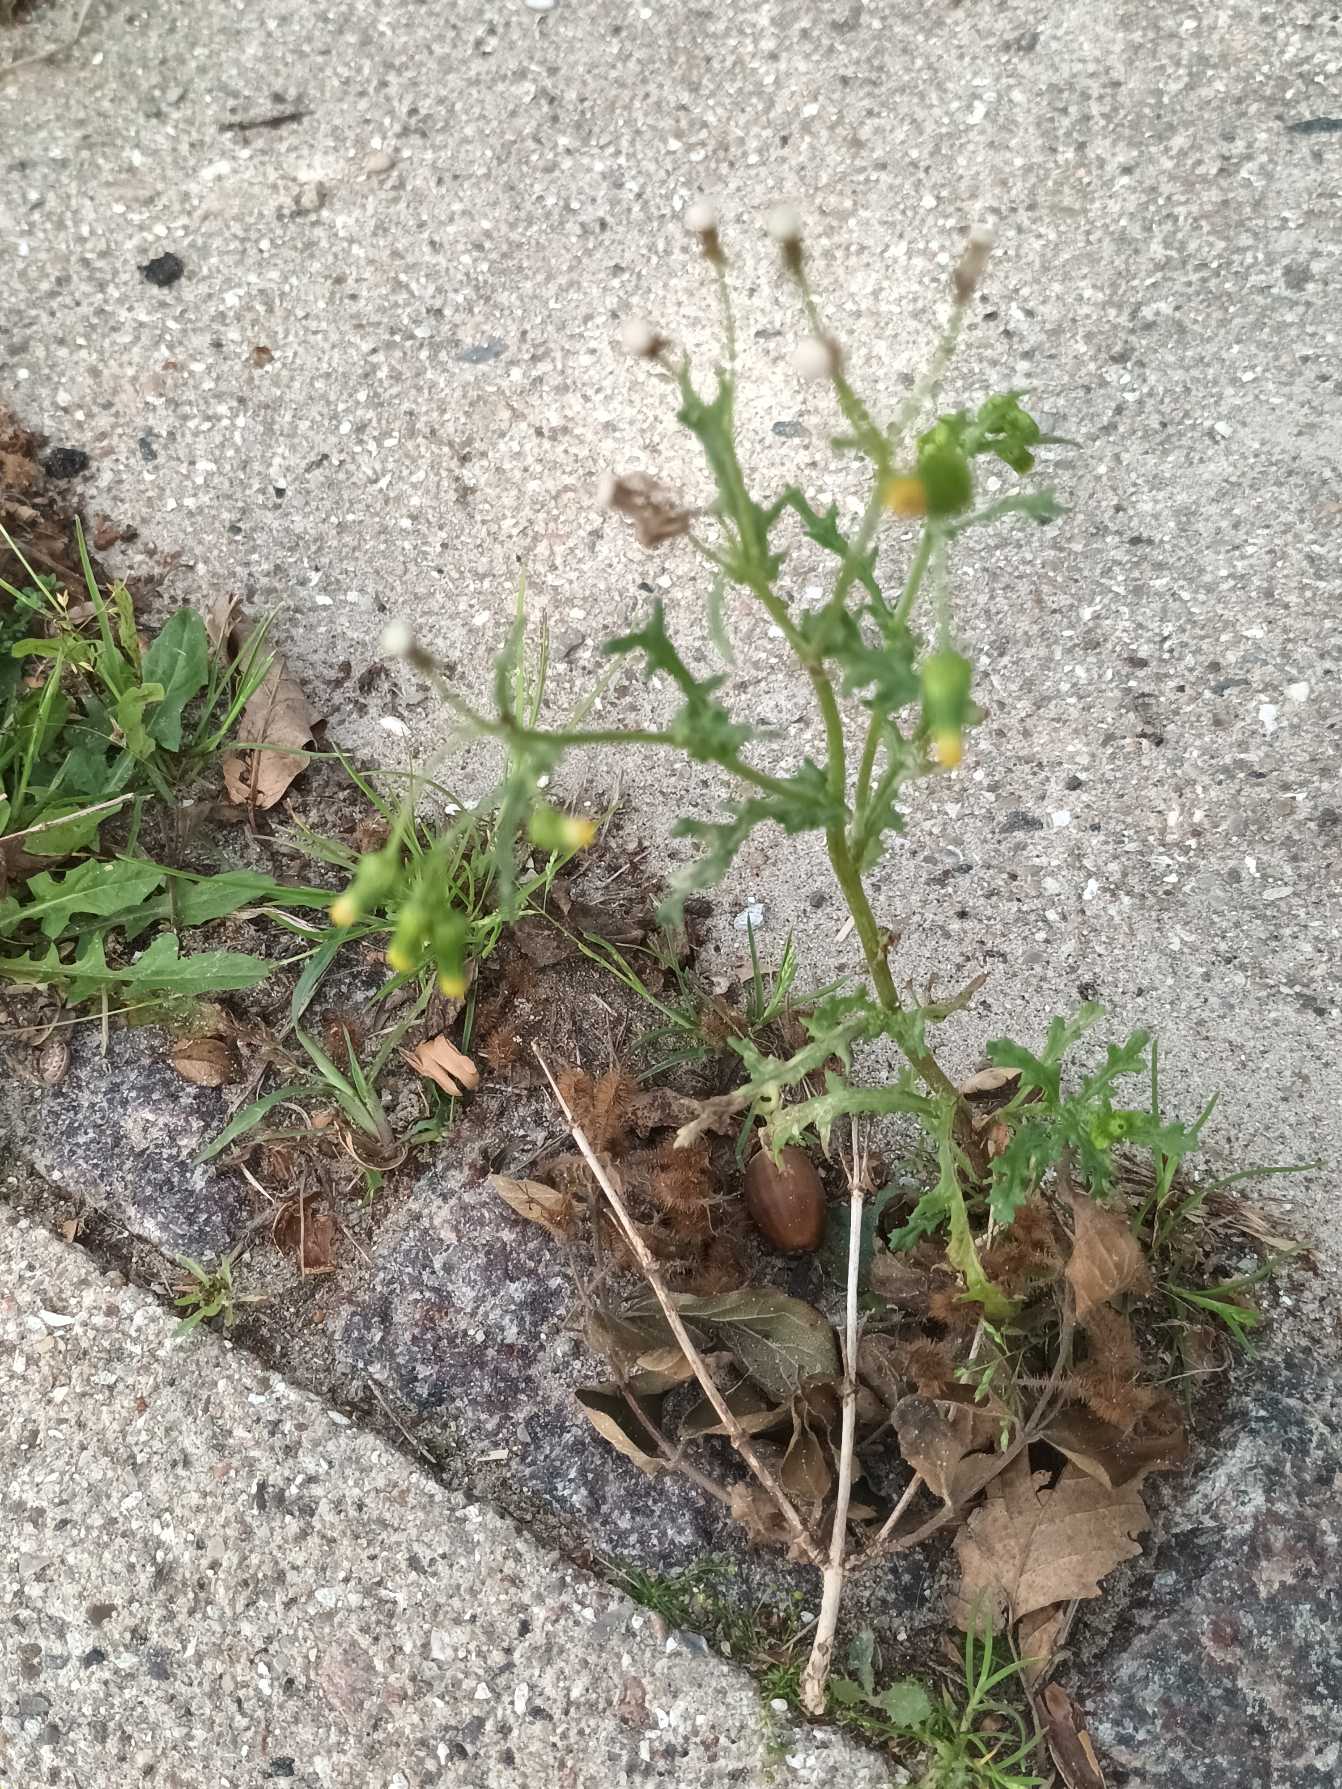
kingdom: Plantae
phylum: Tracheophyta
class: Magnoliopsida
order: Asterales
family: Asteraceae
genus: Senecio
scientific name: Senecio vulgaris
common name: Almindelig brandbæger
